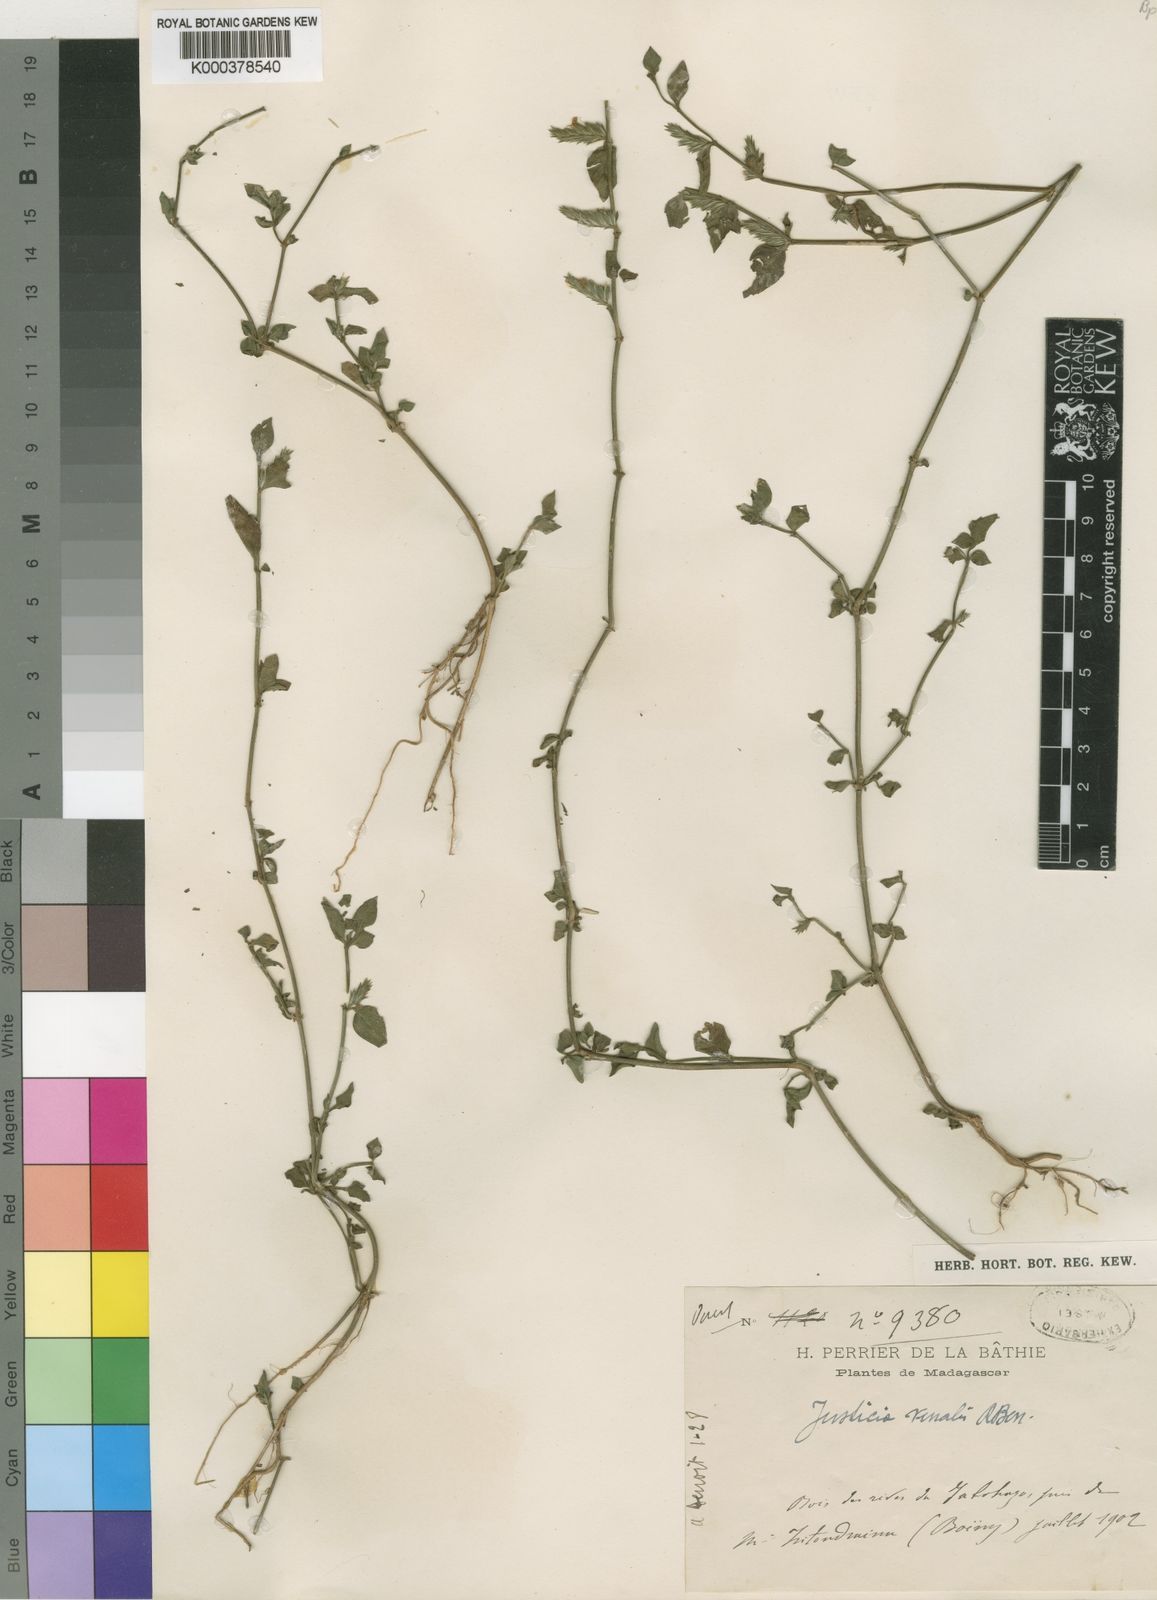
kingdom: Plantae
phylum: Tracheophyta
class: Magnoliopsida
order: Lamiales
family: Acanthaceae
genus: Justicia
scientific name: Justicia venalis
